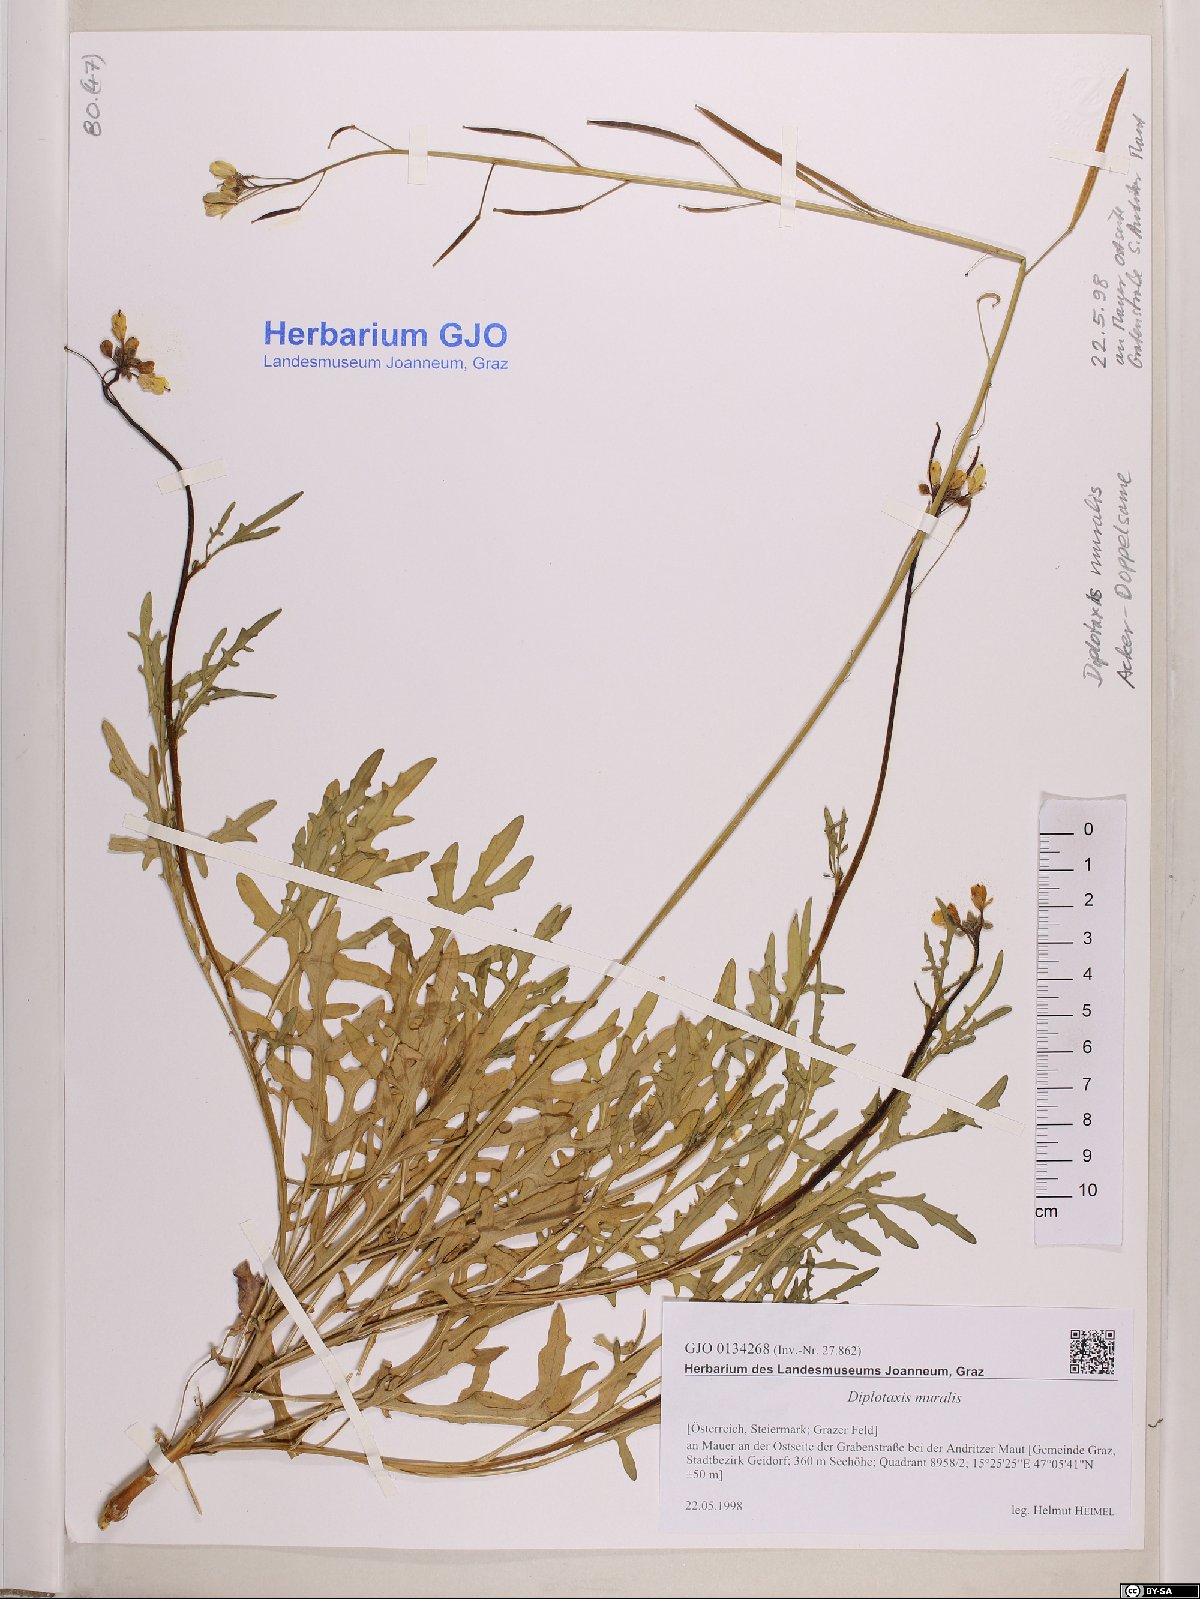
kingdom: Plantae
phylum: Tracheophyta
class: Magnoliopsida
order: Brassicales
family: Brassicaceae
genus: Diplotaxis
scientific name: Diplotaxis muralis
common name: Annual wall-rocket
